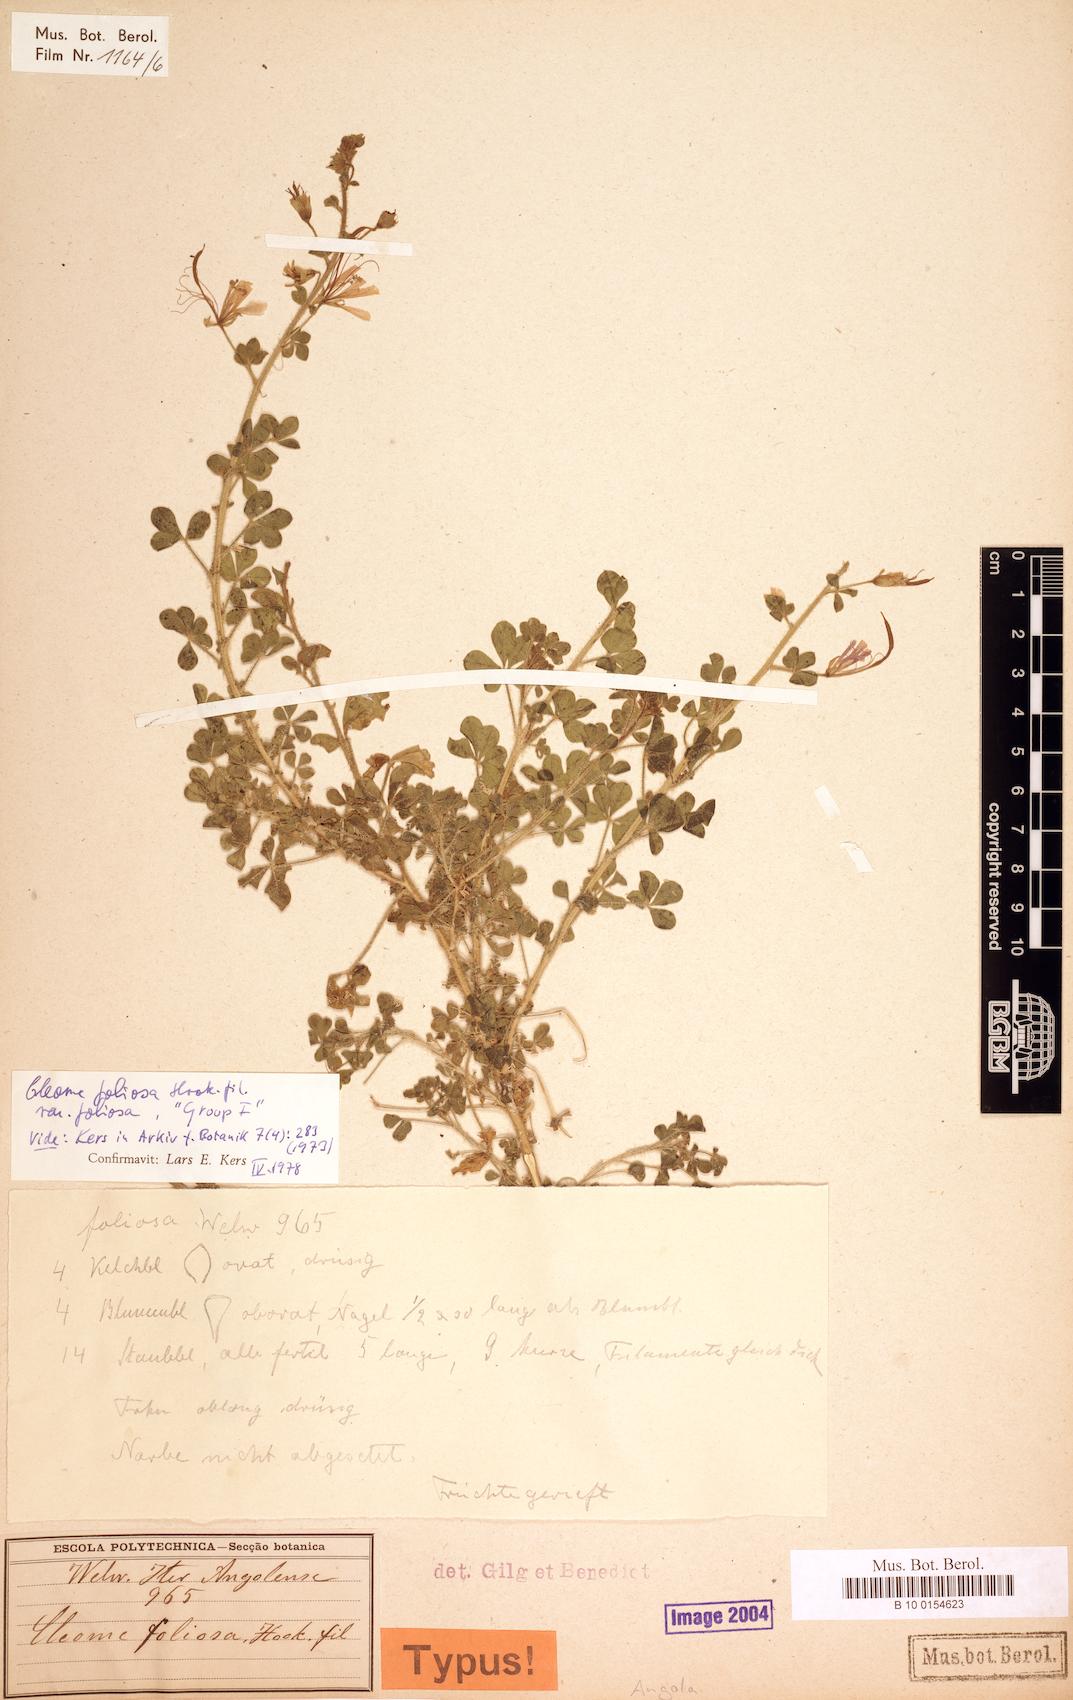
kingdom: Plantae
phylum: Tracheophyta
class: Magnoliopsida
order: Brassicales
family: Cleomaceae
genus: Kersia
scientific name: Kersia foliosa
